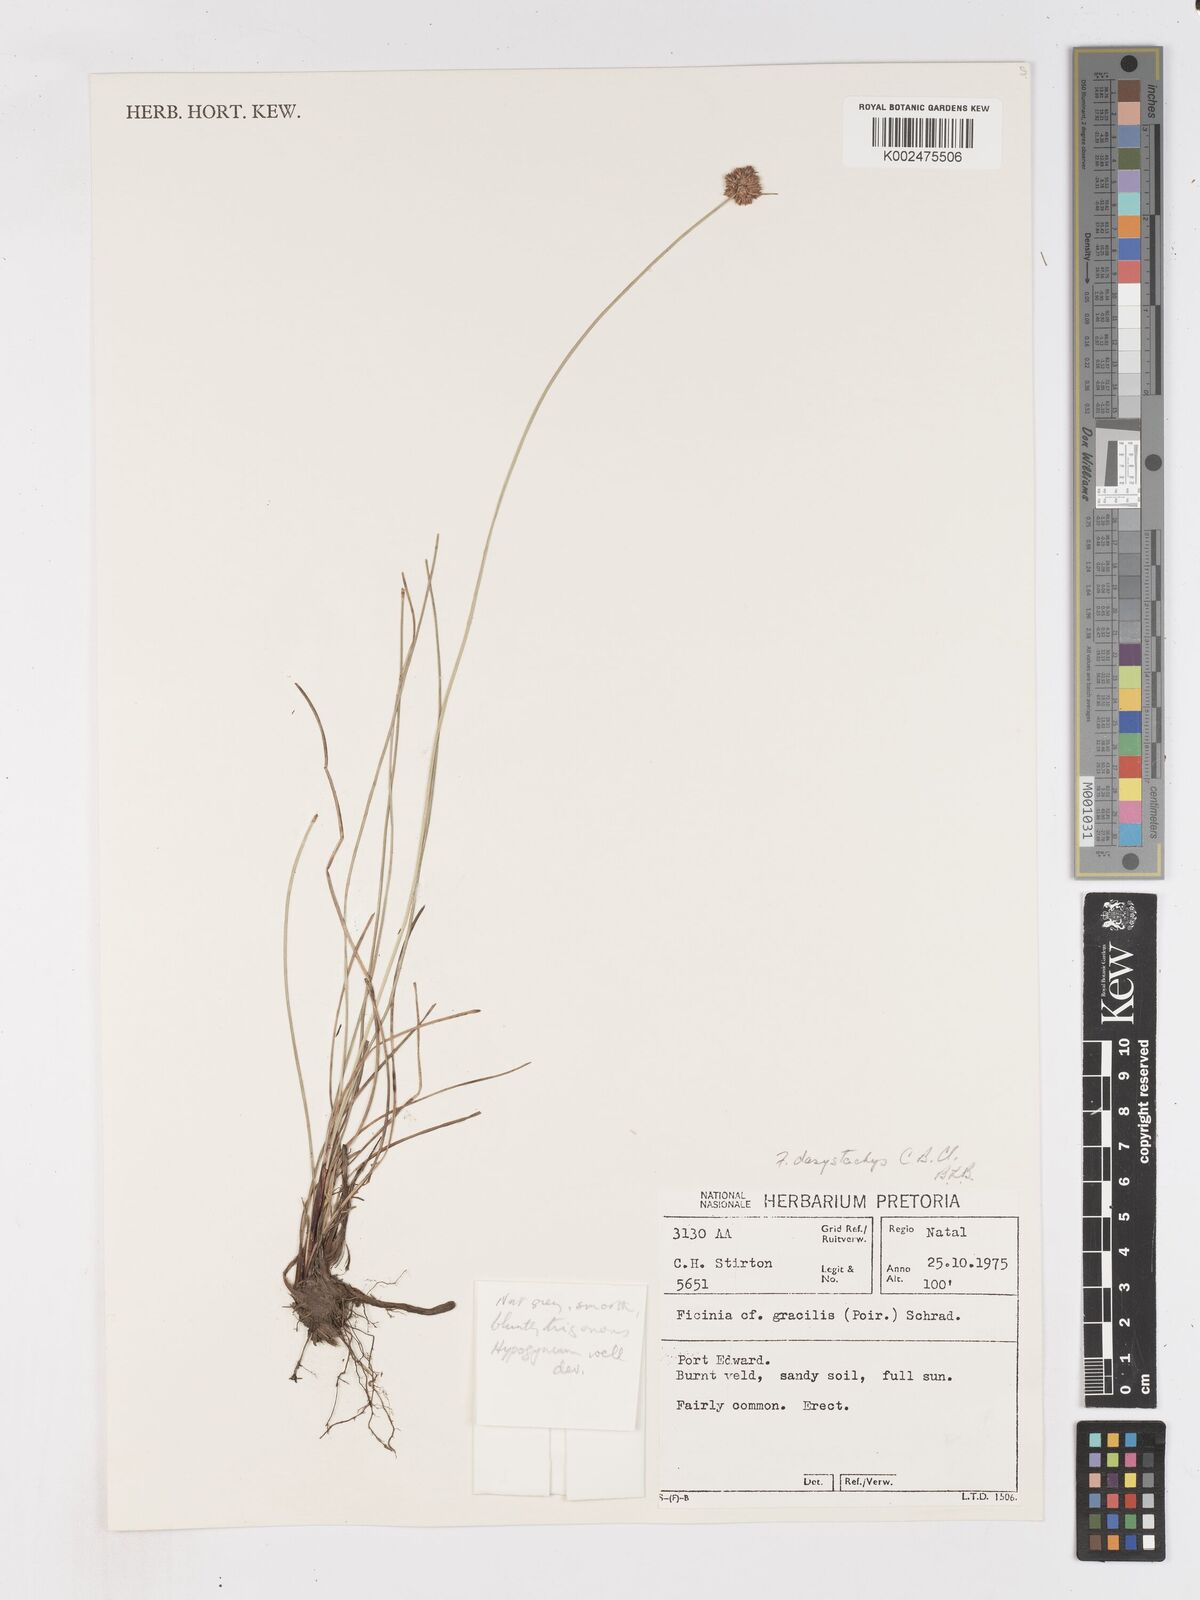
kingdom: Plantae
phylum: Tracheophyta
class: Liliopsida
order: Poales
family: Cyperaceae
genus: Ficinia
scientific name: Ficinia dasystachys
